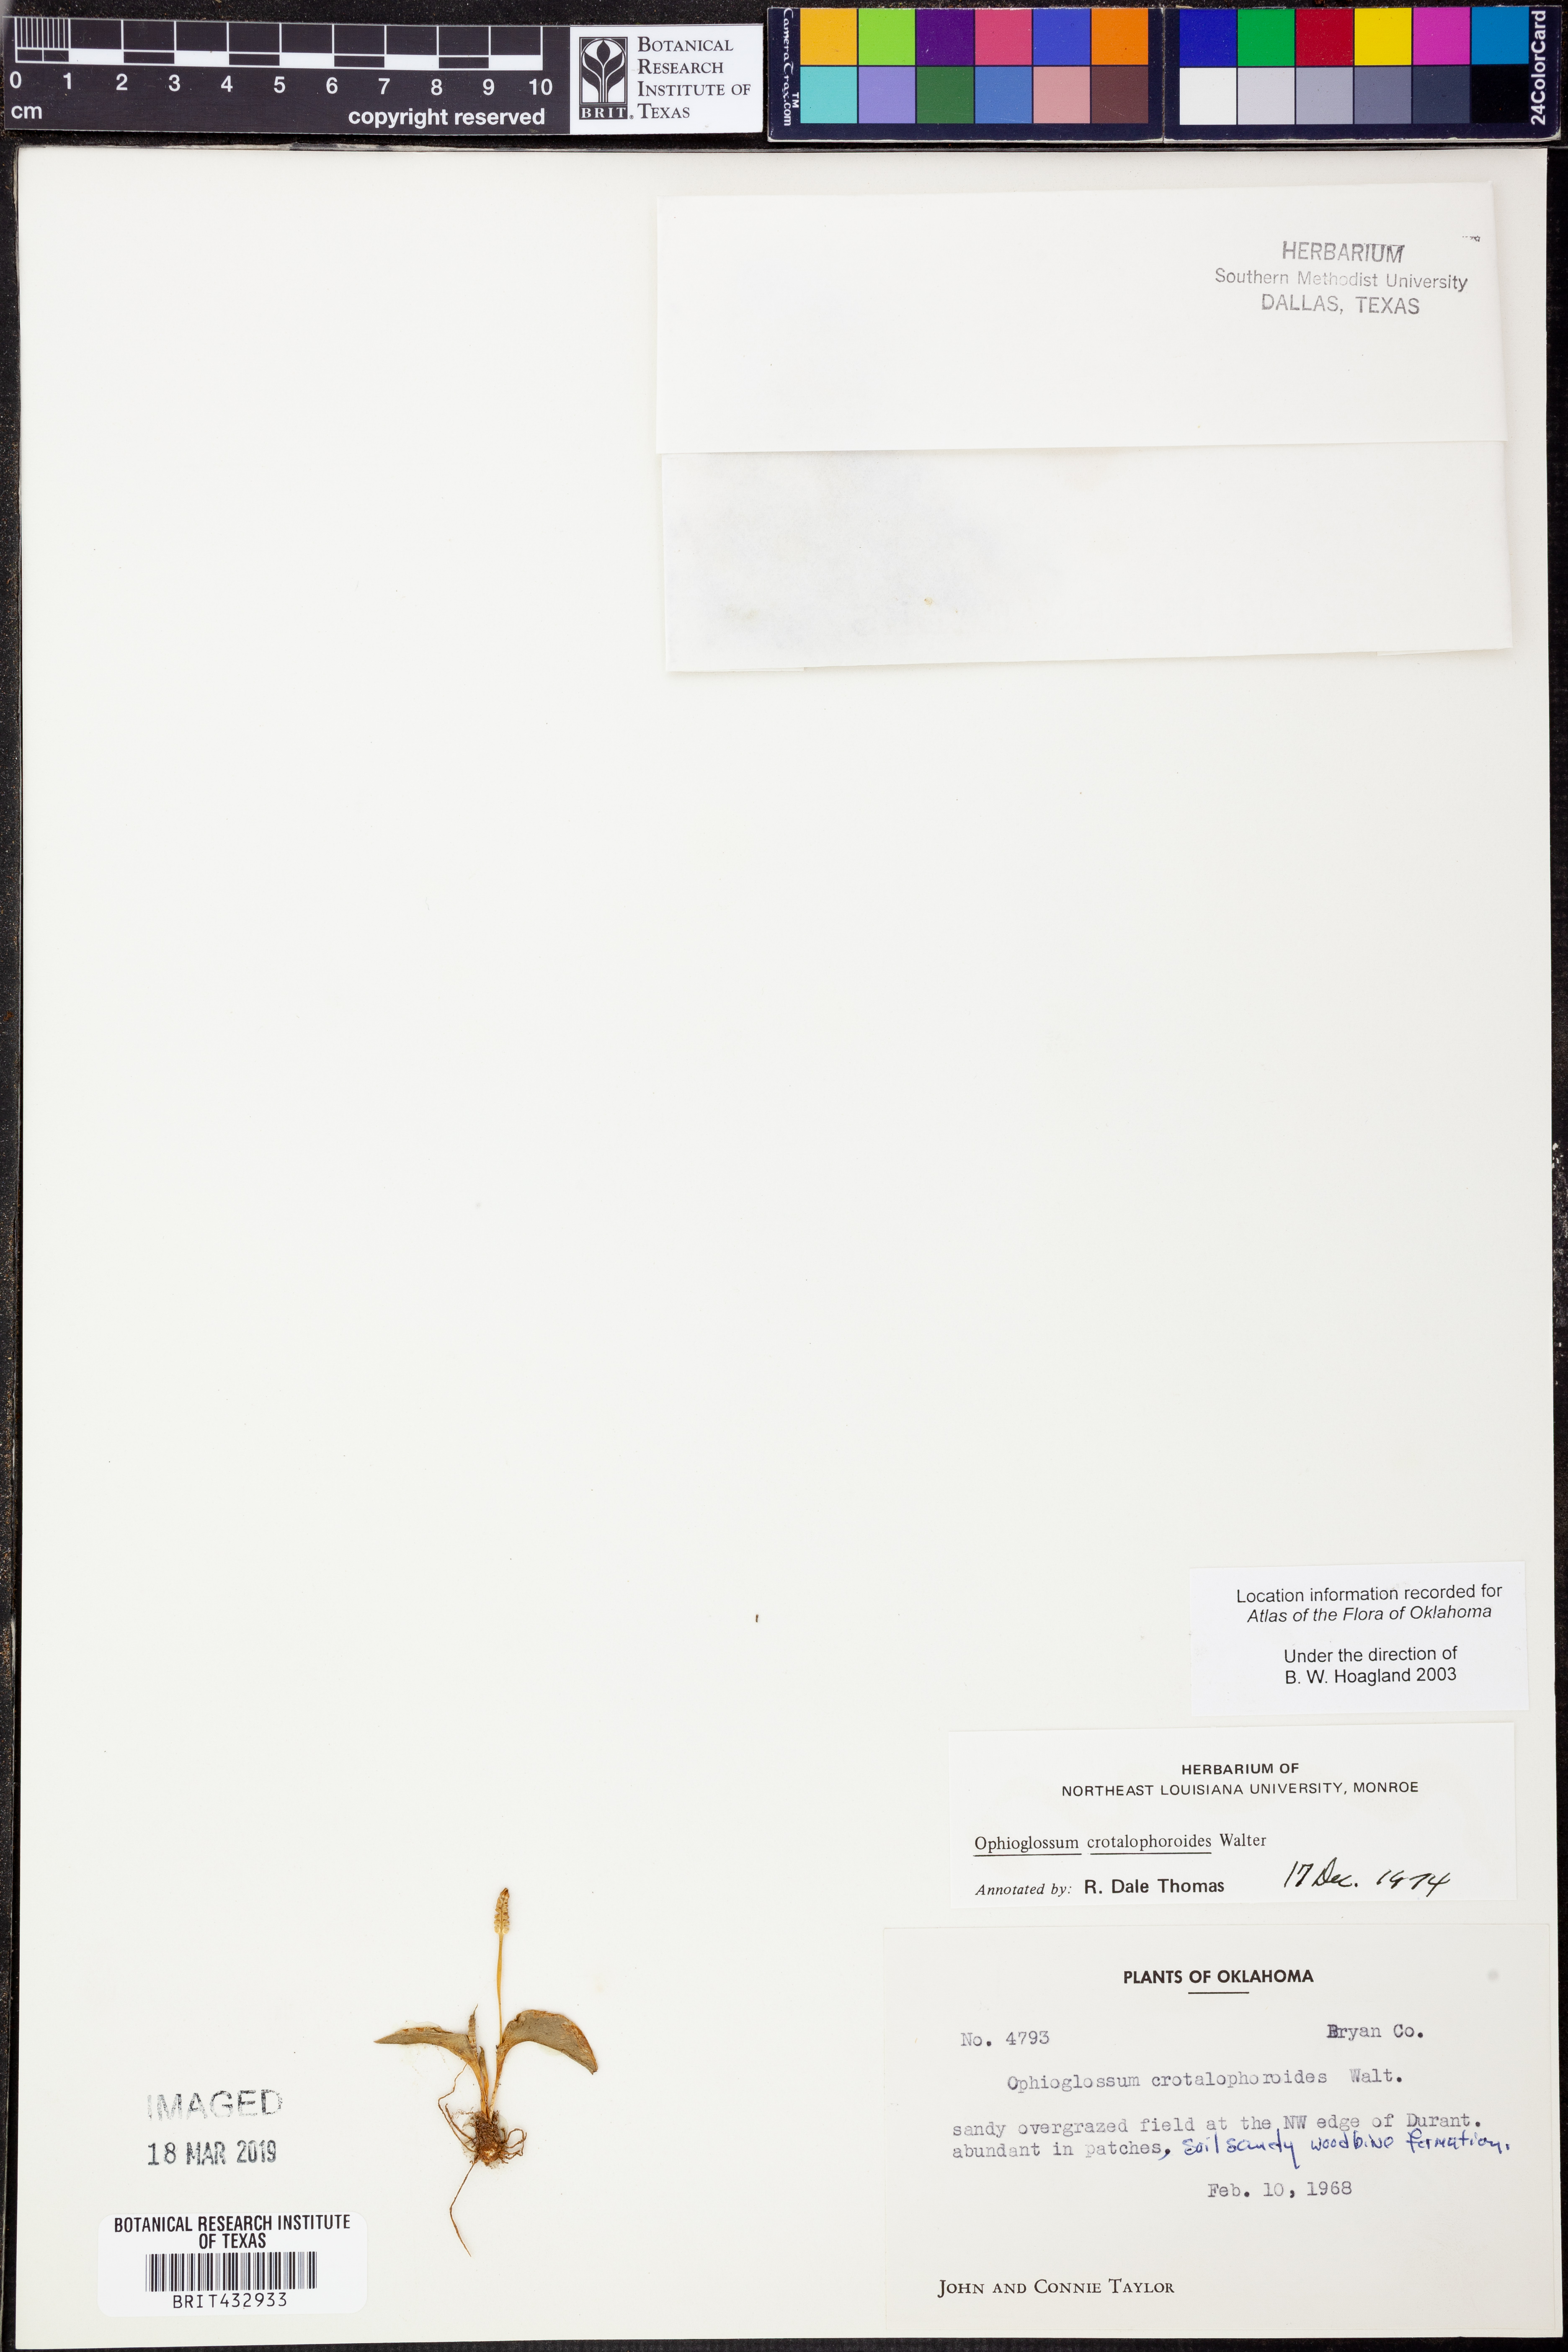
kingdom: Plantae
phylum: Tracheophyta
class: Polypodiopsida
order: Ophioglossales
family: Ophioglossaceae
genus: Ophioglossum
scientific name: Ophioglossum crotalophoroides
